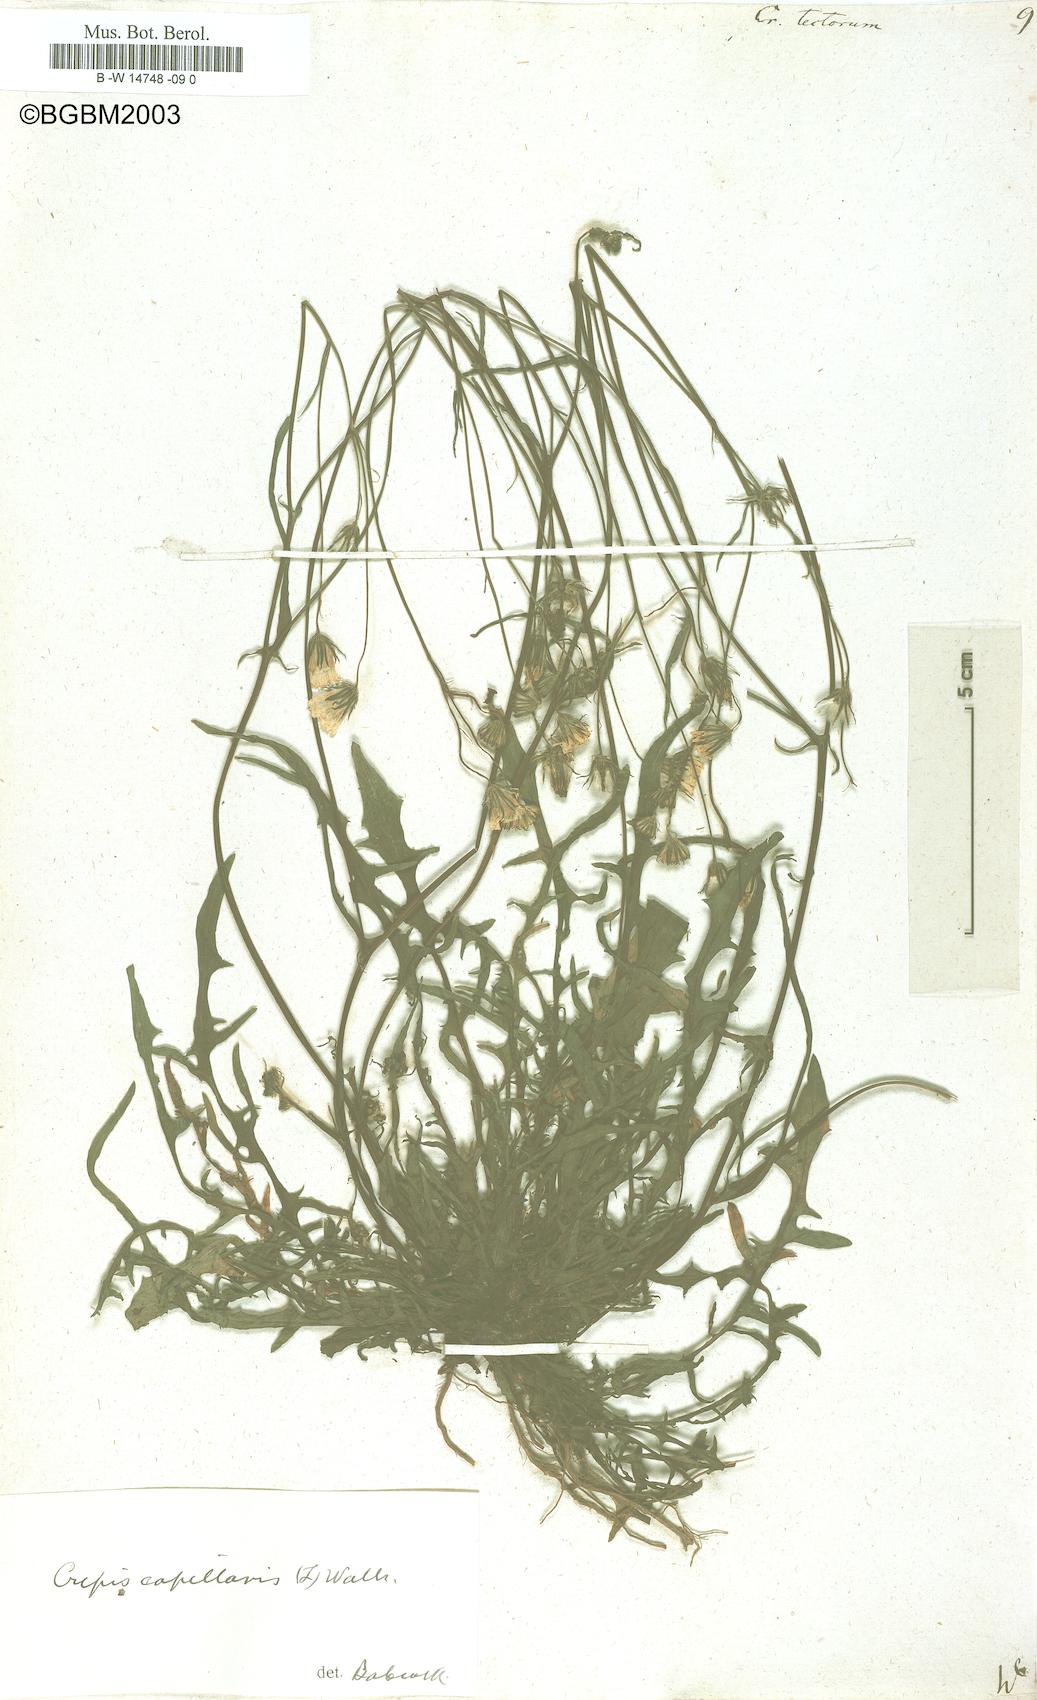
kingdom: Plantae
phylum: Tracheophyta
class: Magnoliopsida
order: Asterales
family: Asteraceae
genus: Crepis
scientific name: Crepis tectorum
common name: Narrow-leaved hawk's-beard
